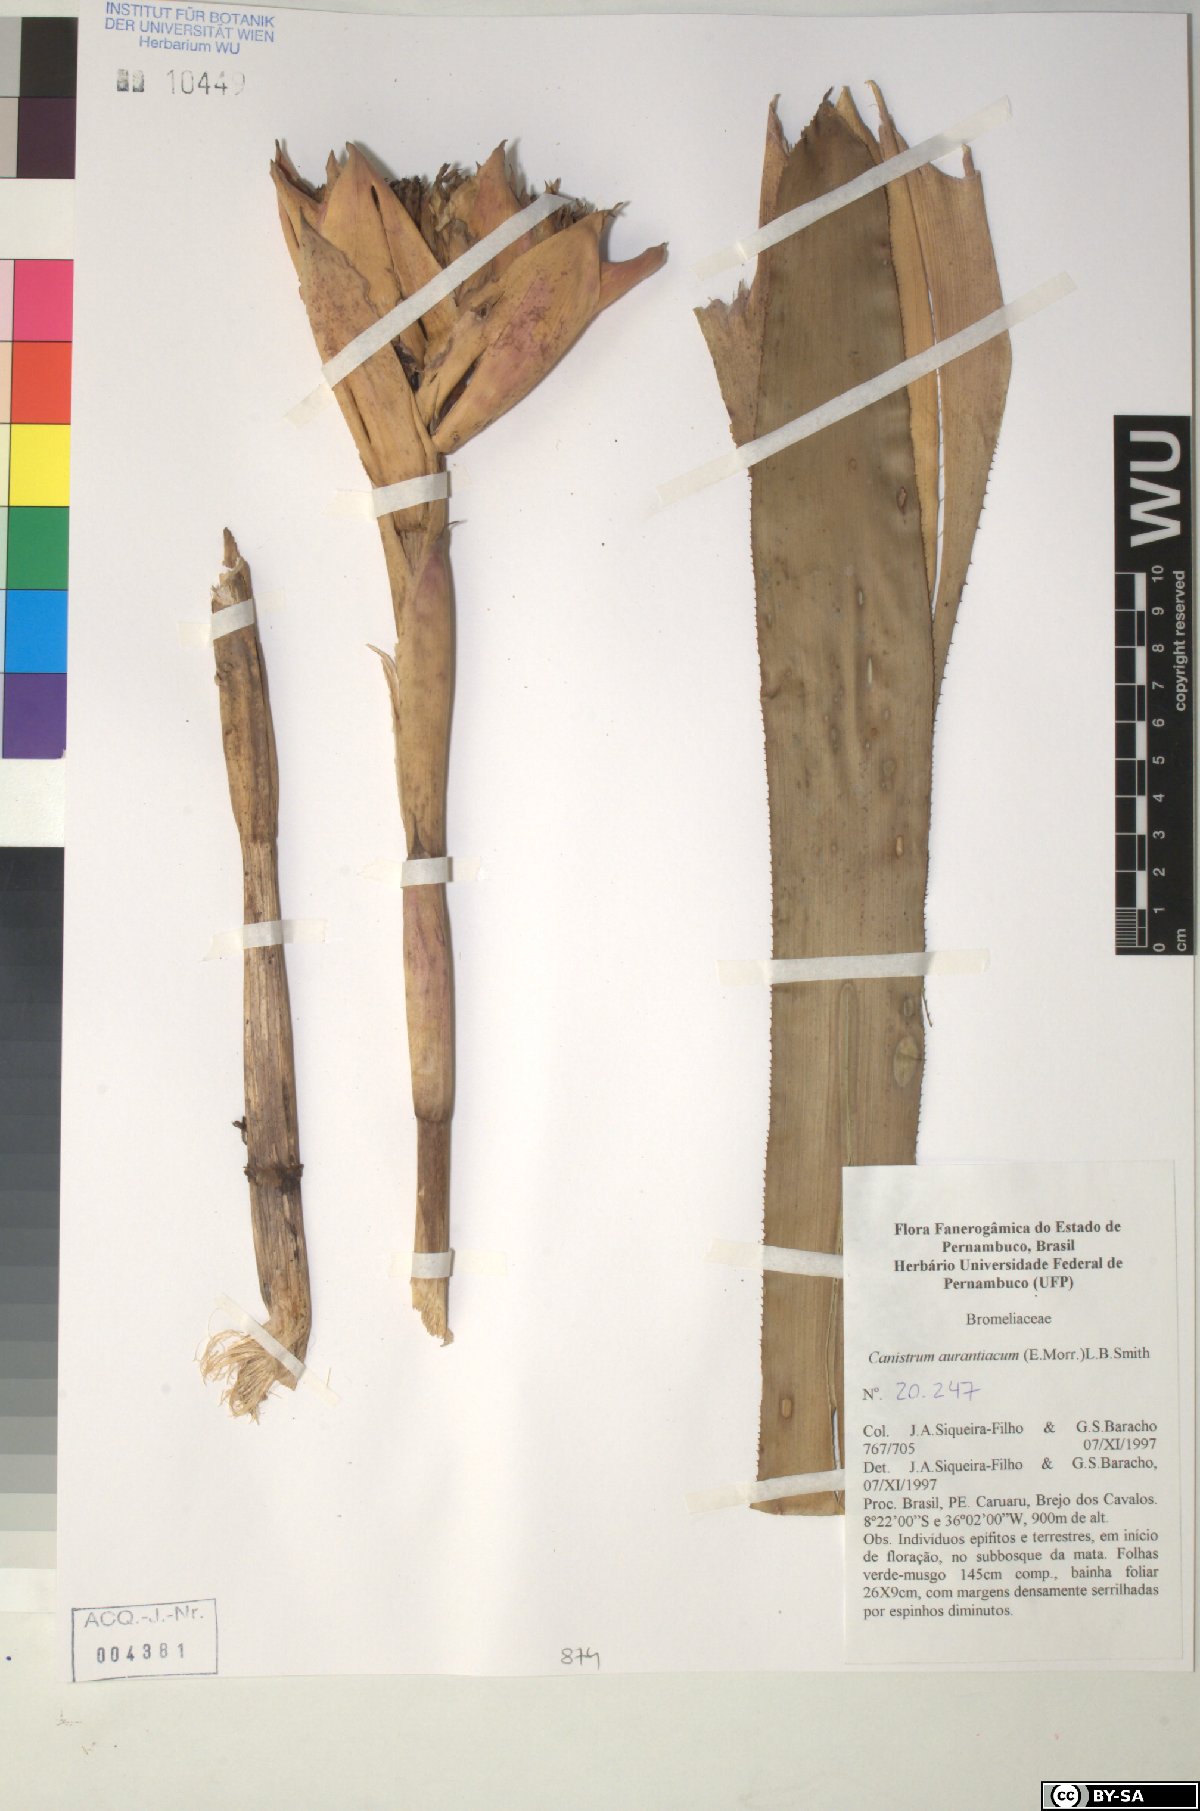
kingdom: Plantae
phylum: Tracheophyta
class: Liliopsida
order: Poales
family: Bromeliaceae
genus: Canistrum
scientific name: Canistrum aurantiacum
